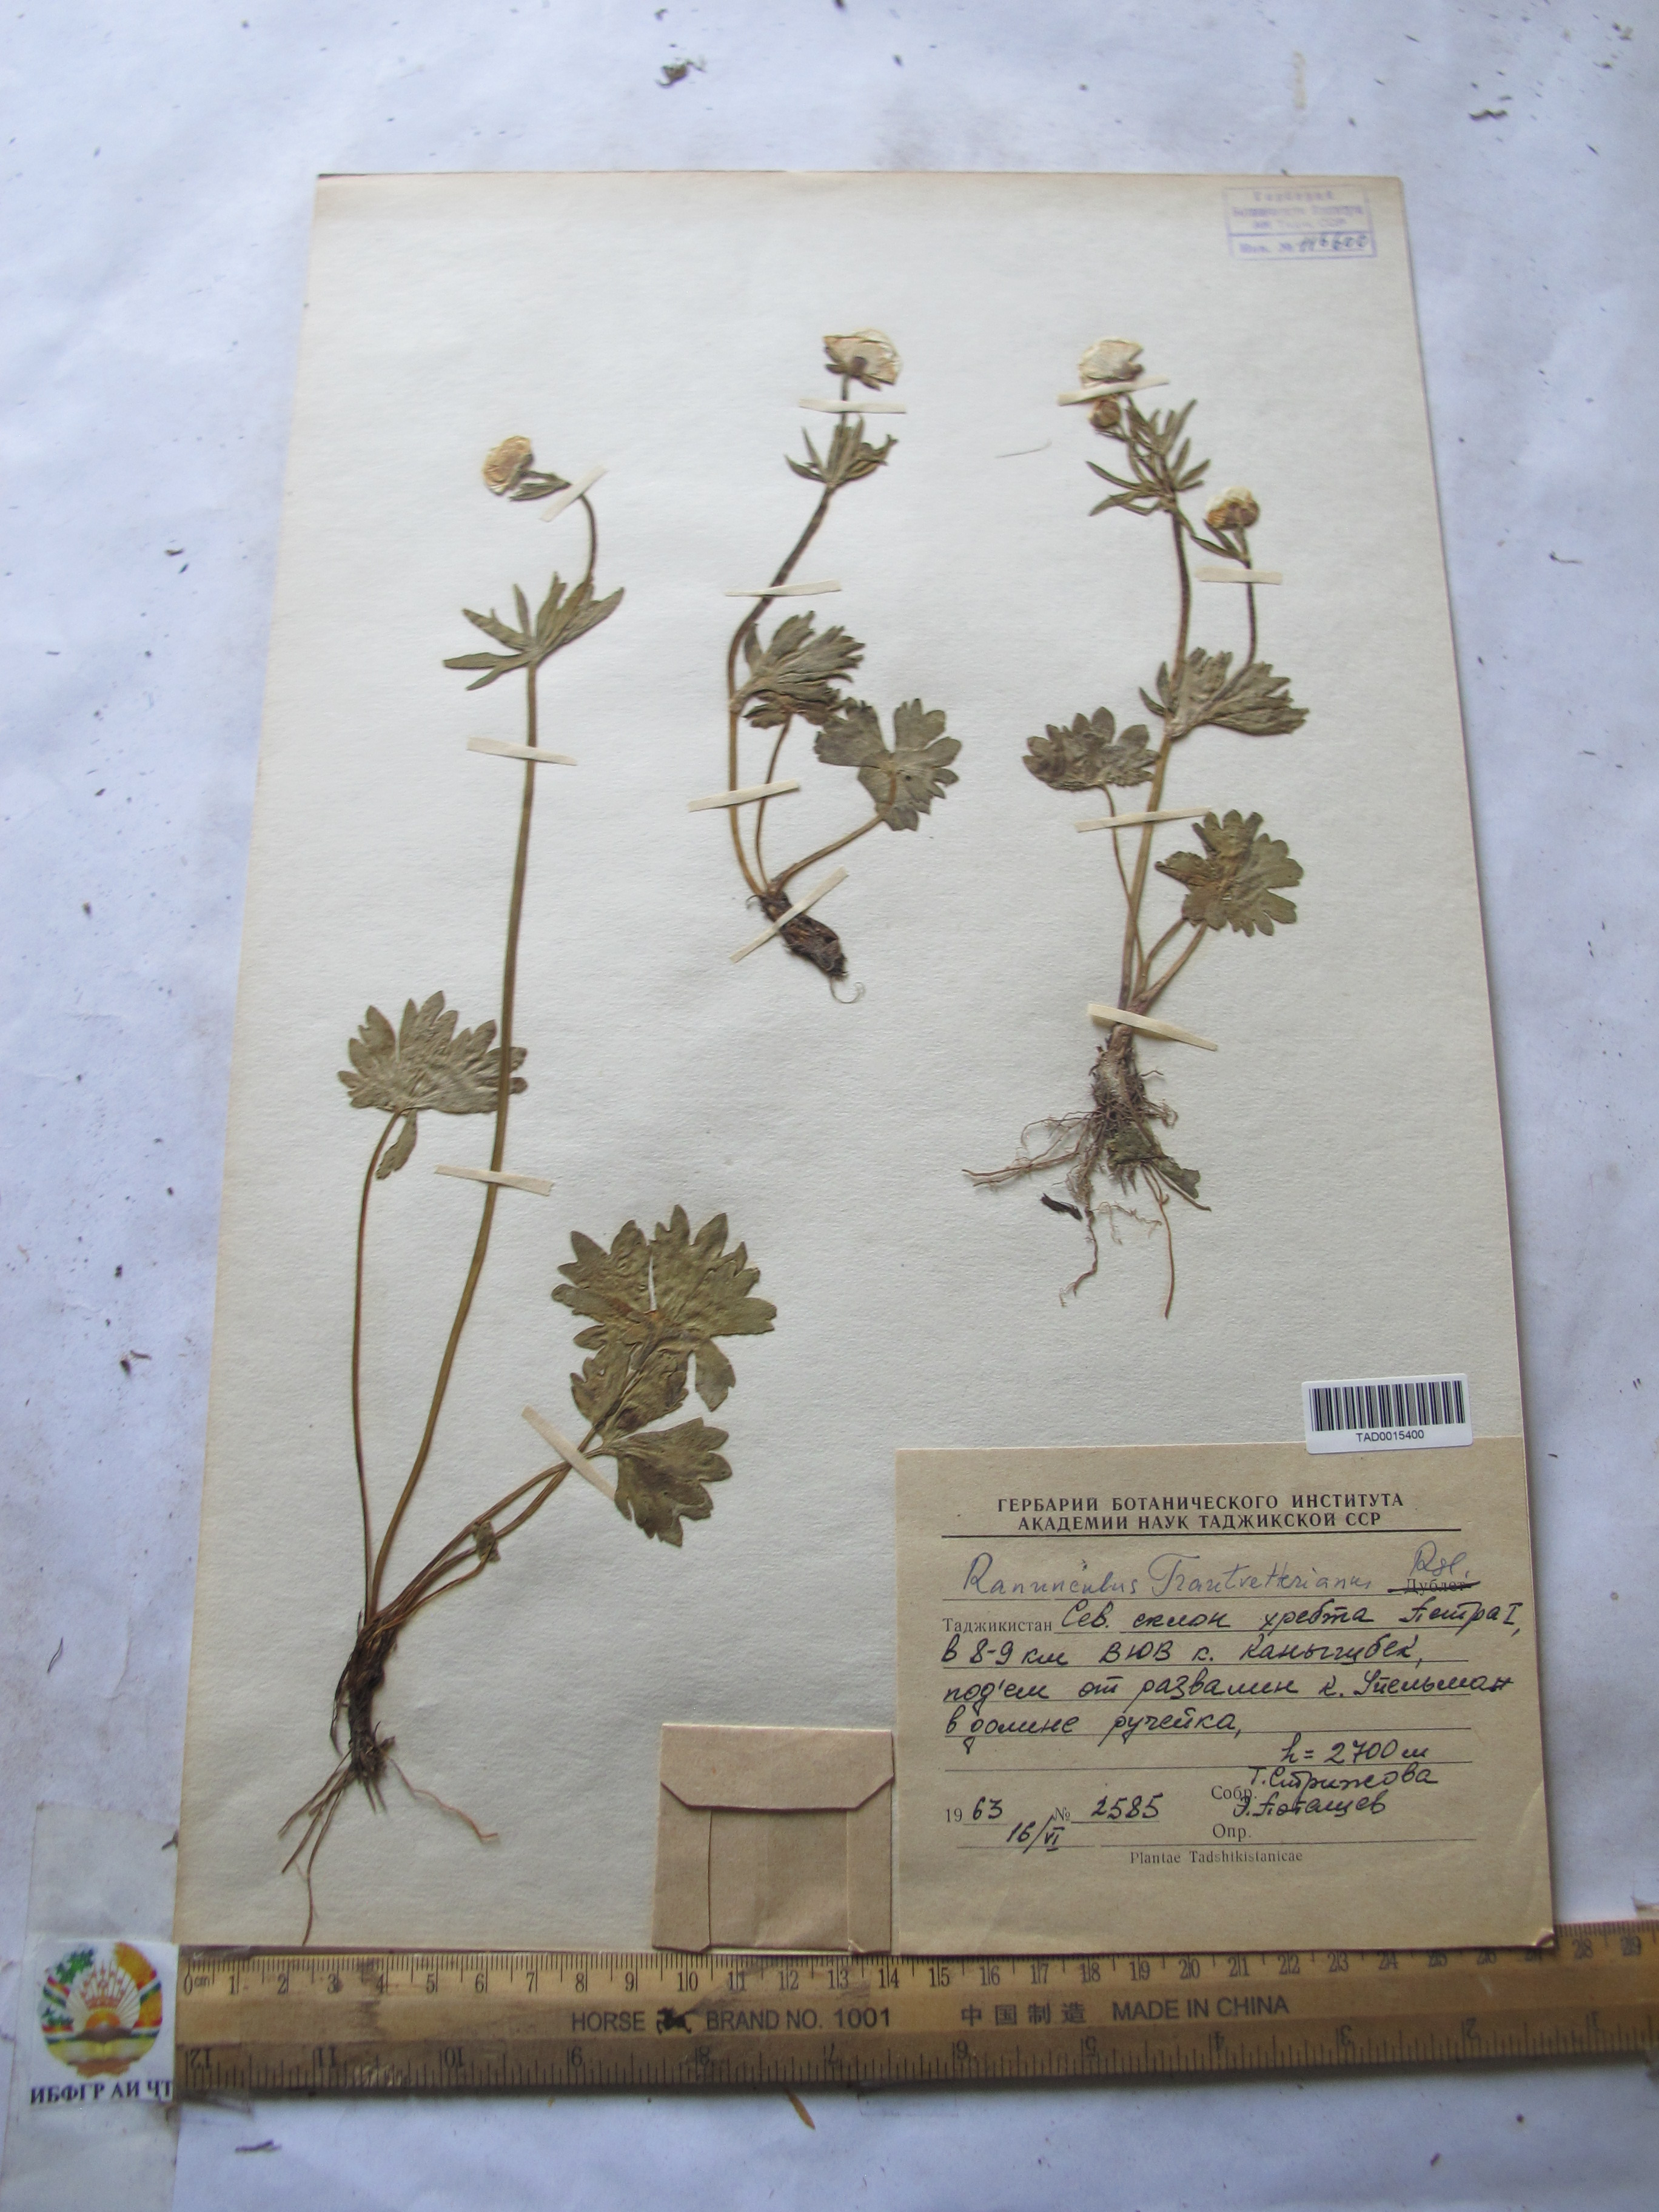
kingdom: Plantae
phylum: Tracheophyta
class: Magnoliopsida
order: Ranunculales
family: Ranunculaceae
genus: Ranunculus
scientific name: Ranunculus songaricus
